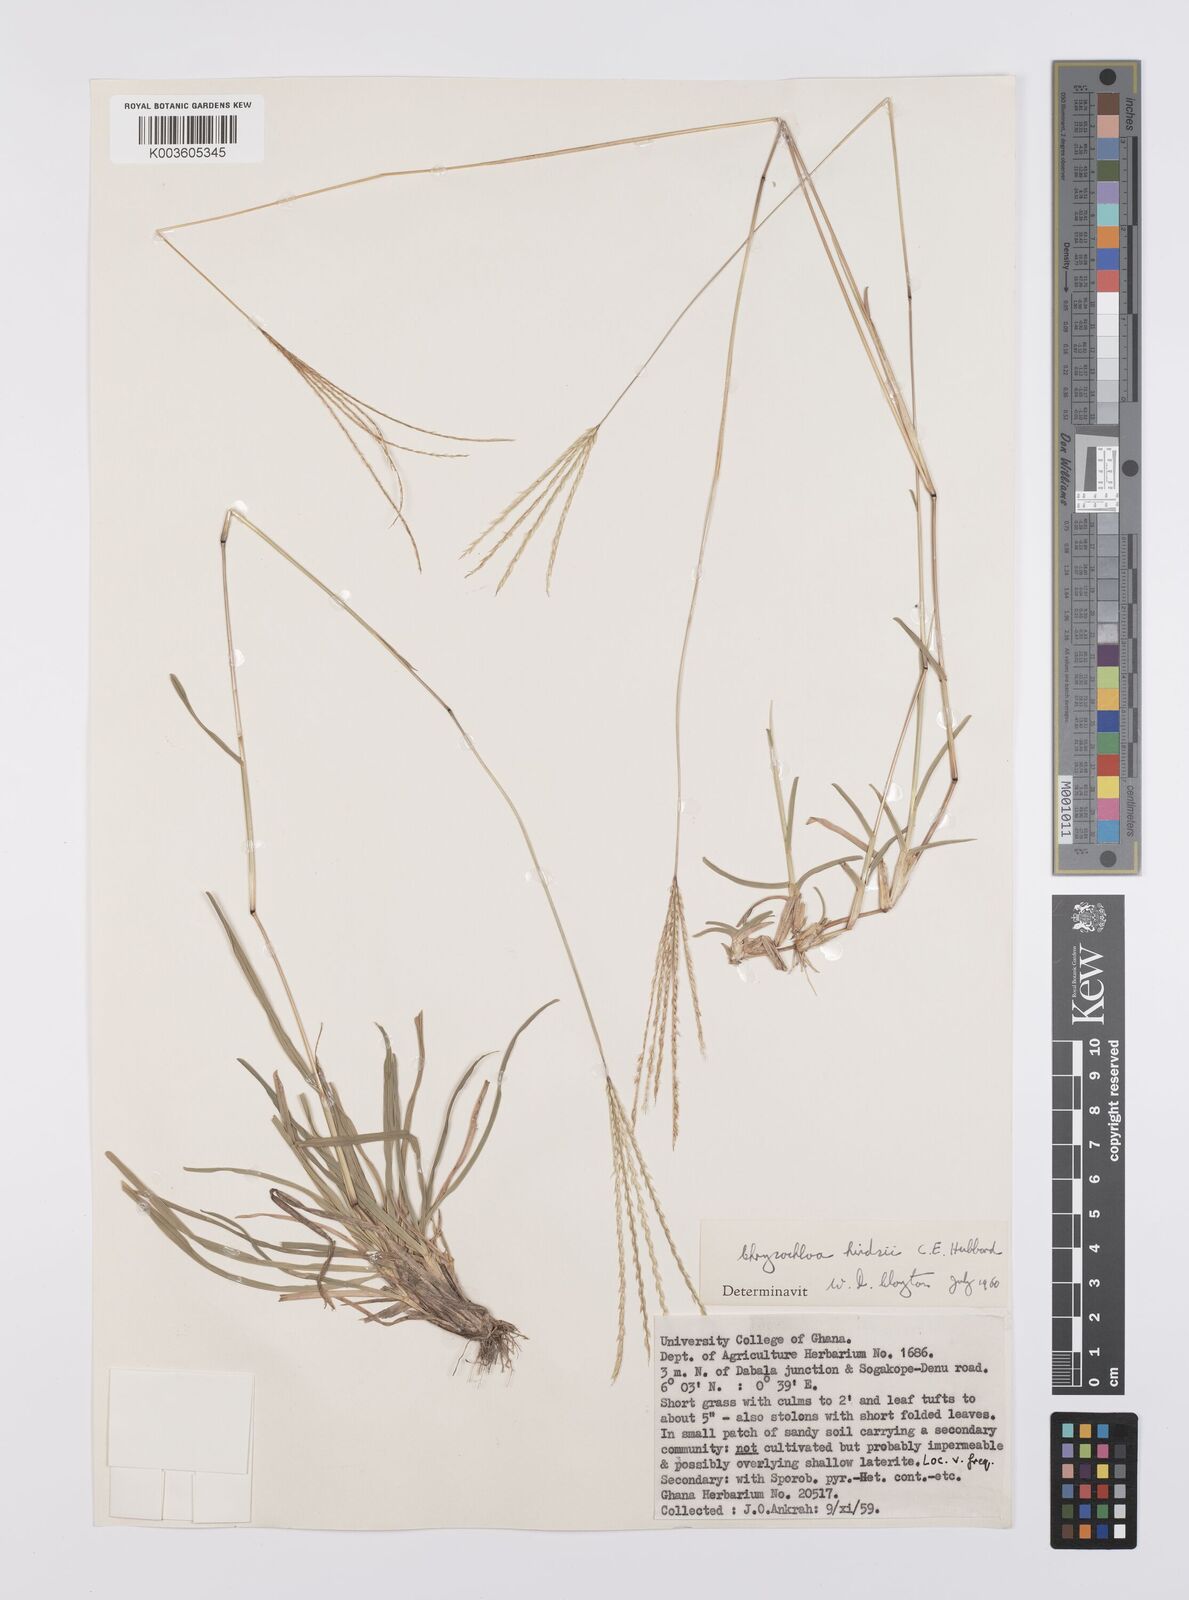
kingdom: Plantae
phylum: Tracheophyta
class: Liliopsida
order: Poales
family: Poaceae
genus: Chrysochloa
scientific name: Chrysochloa hindsii
